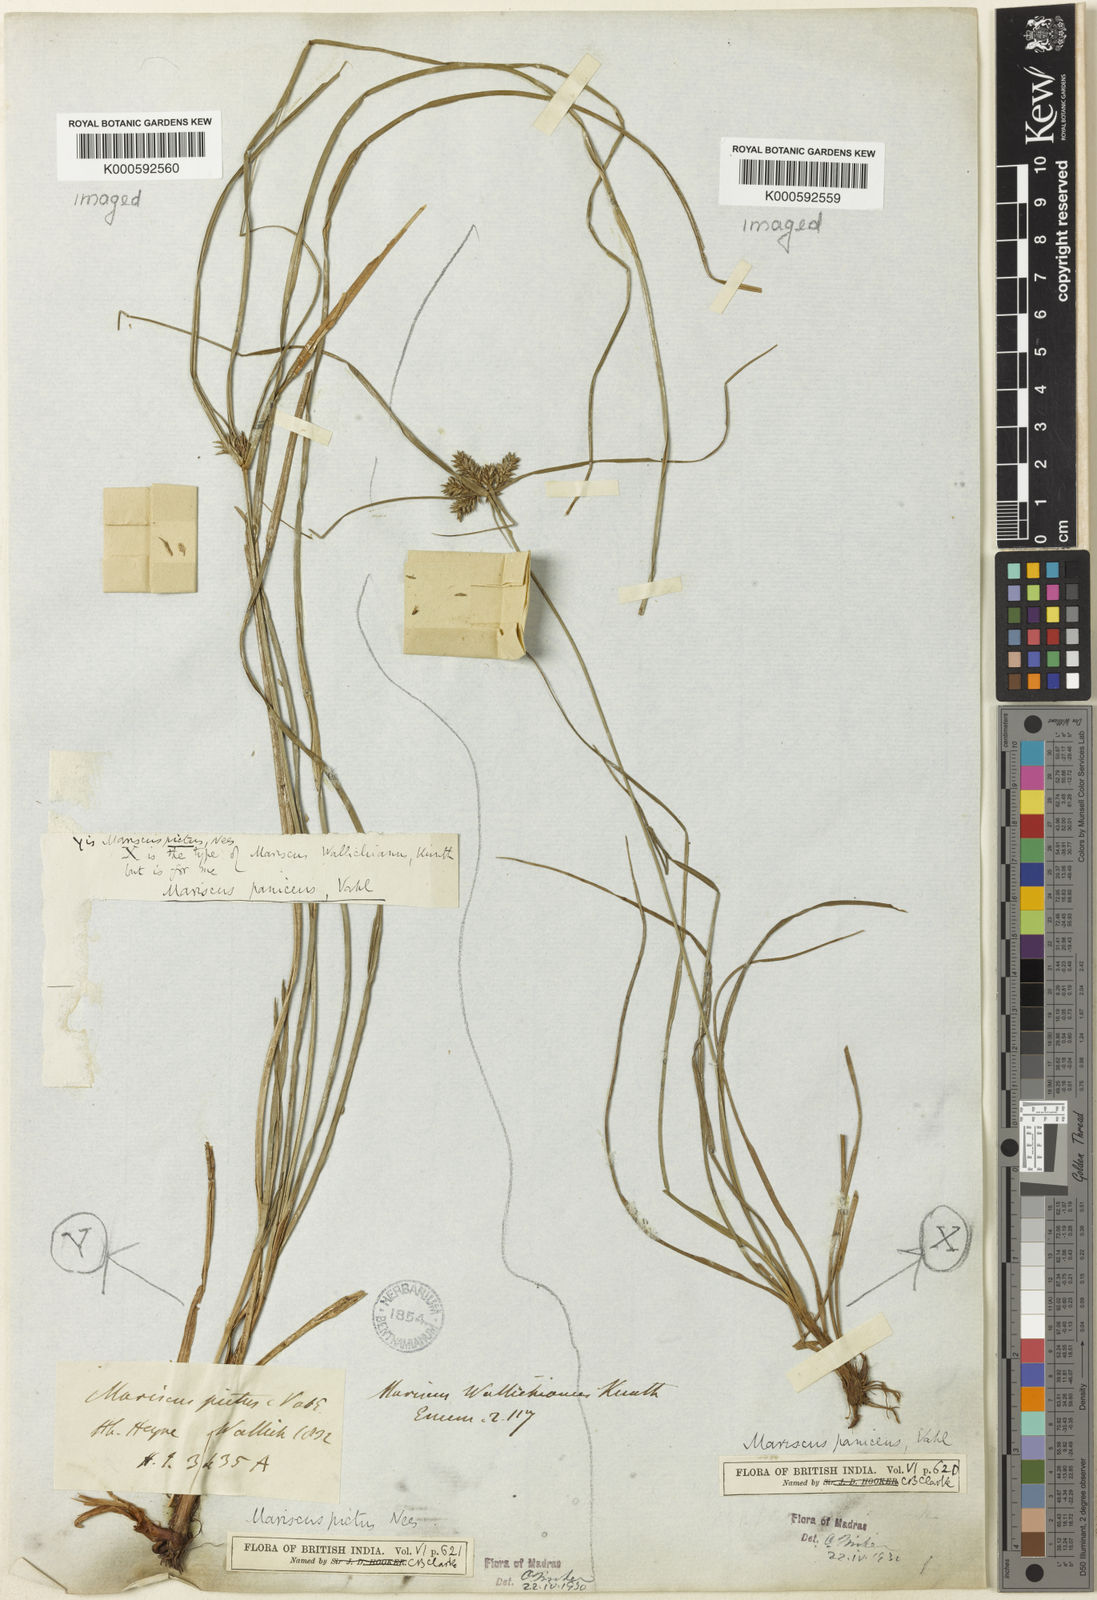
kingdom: Plantae
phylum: Tracheophyta
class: Liliopsida
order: Poales
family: Cyperaceae
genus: Cyperus
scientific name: Cyperus paniceus
